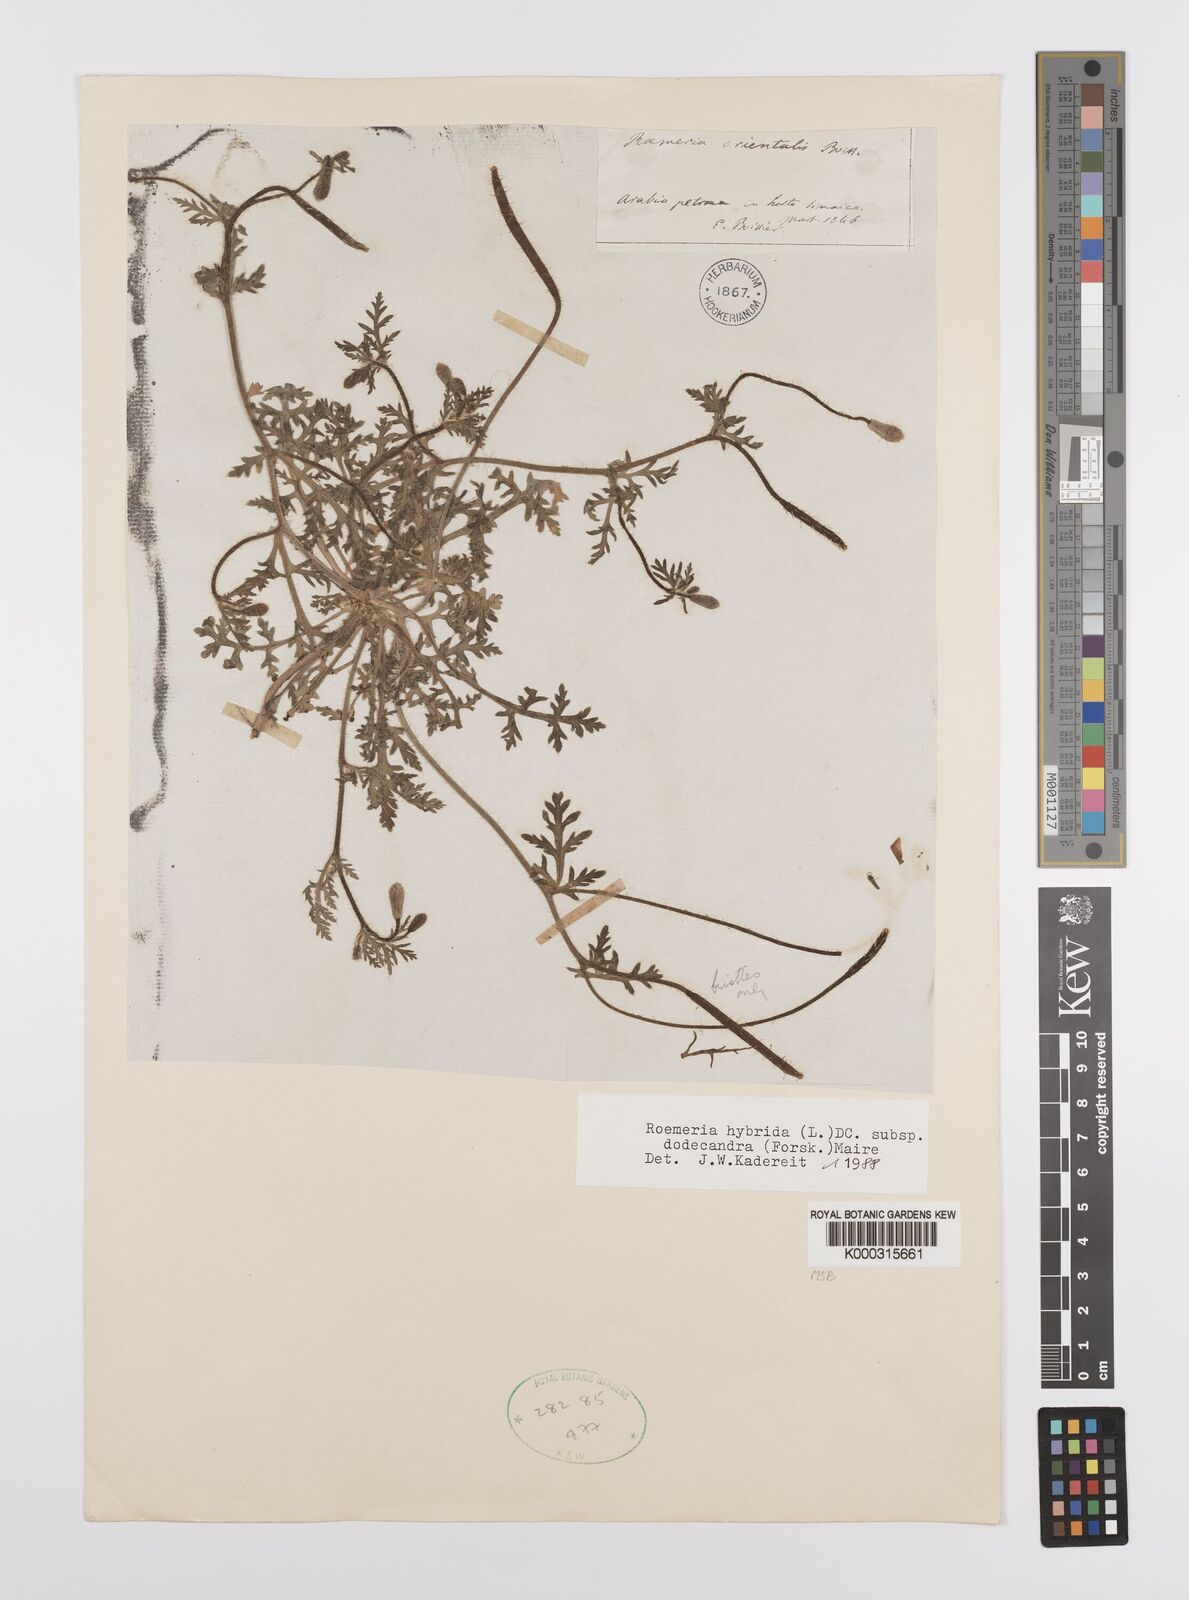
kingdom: Plantae
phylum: Tracheophyta
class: Magnoliopsida
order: Ranunculales
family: Papaveraceae
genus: Roemeria
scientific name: Roemeria hybrida
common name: Violet horned-poppy
